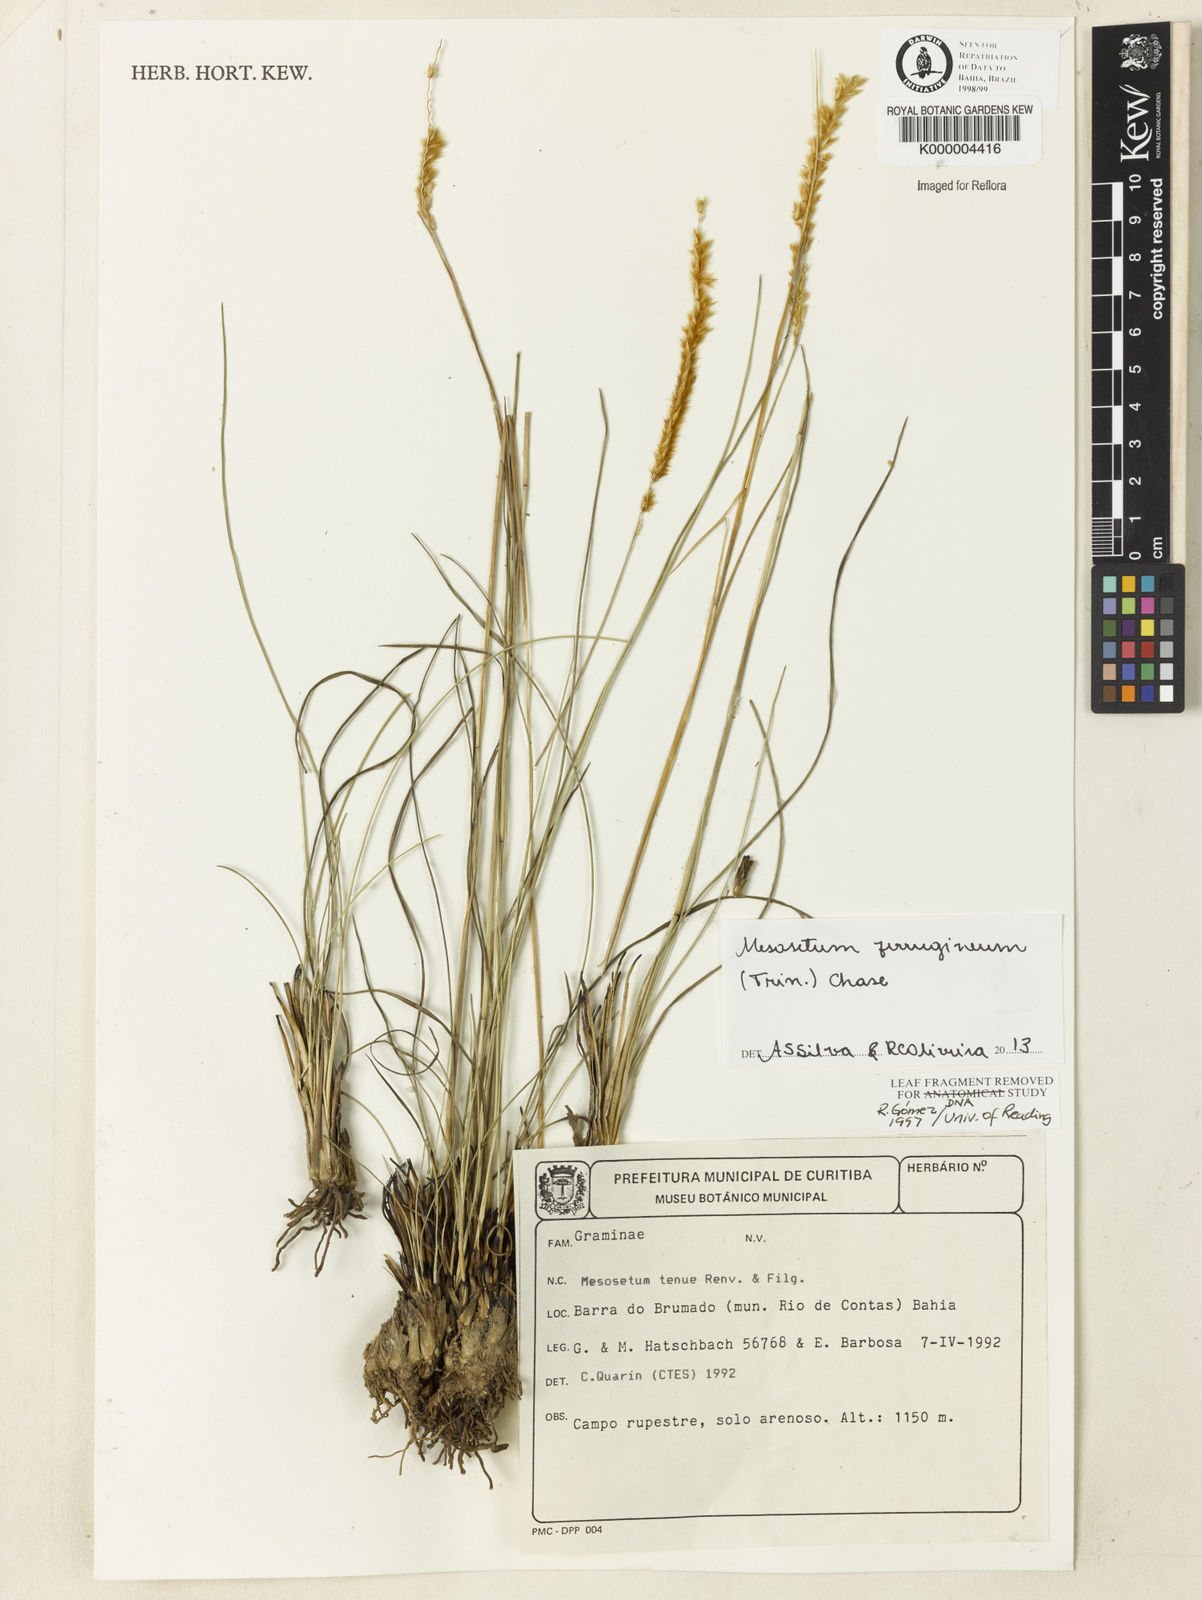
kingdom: Plantae
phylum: Tracheophyta
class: Liliopsida
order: Poales
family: Poaceae
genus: Mesosetum
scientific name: Mesosetum ferrugineum
